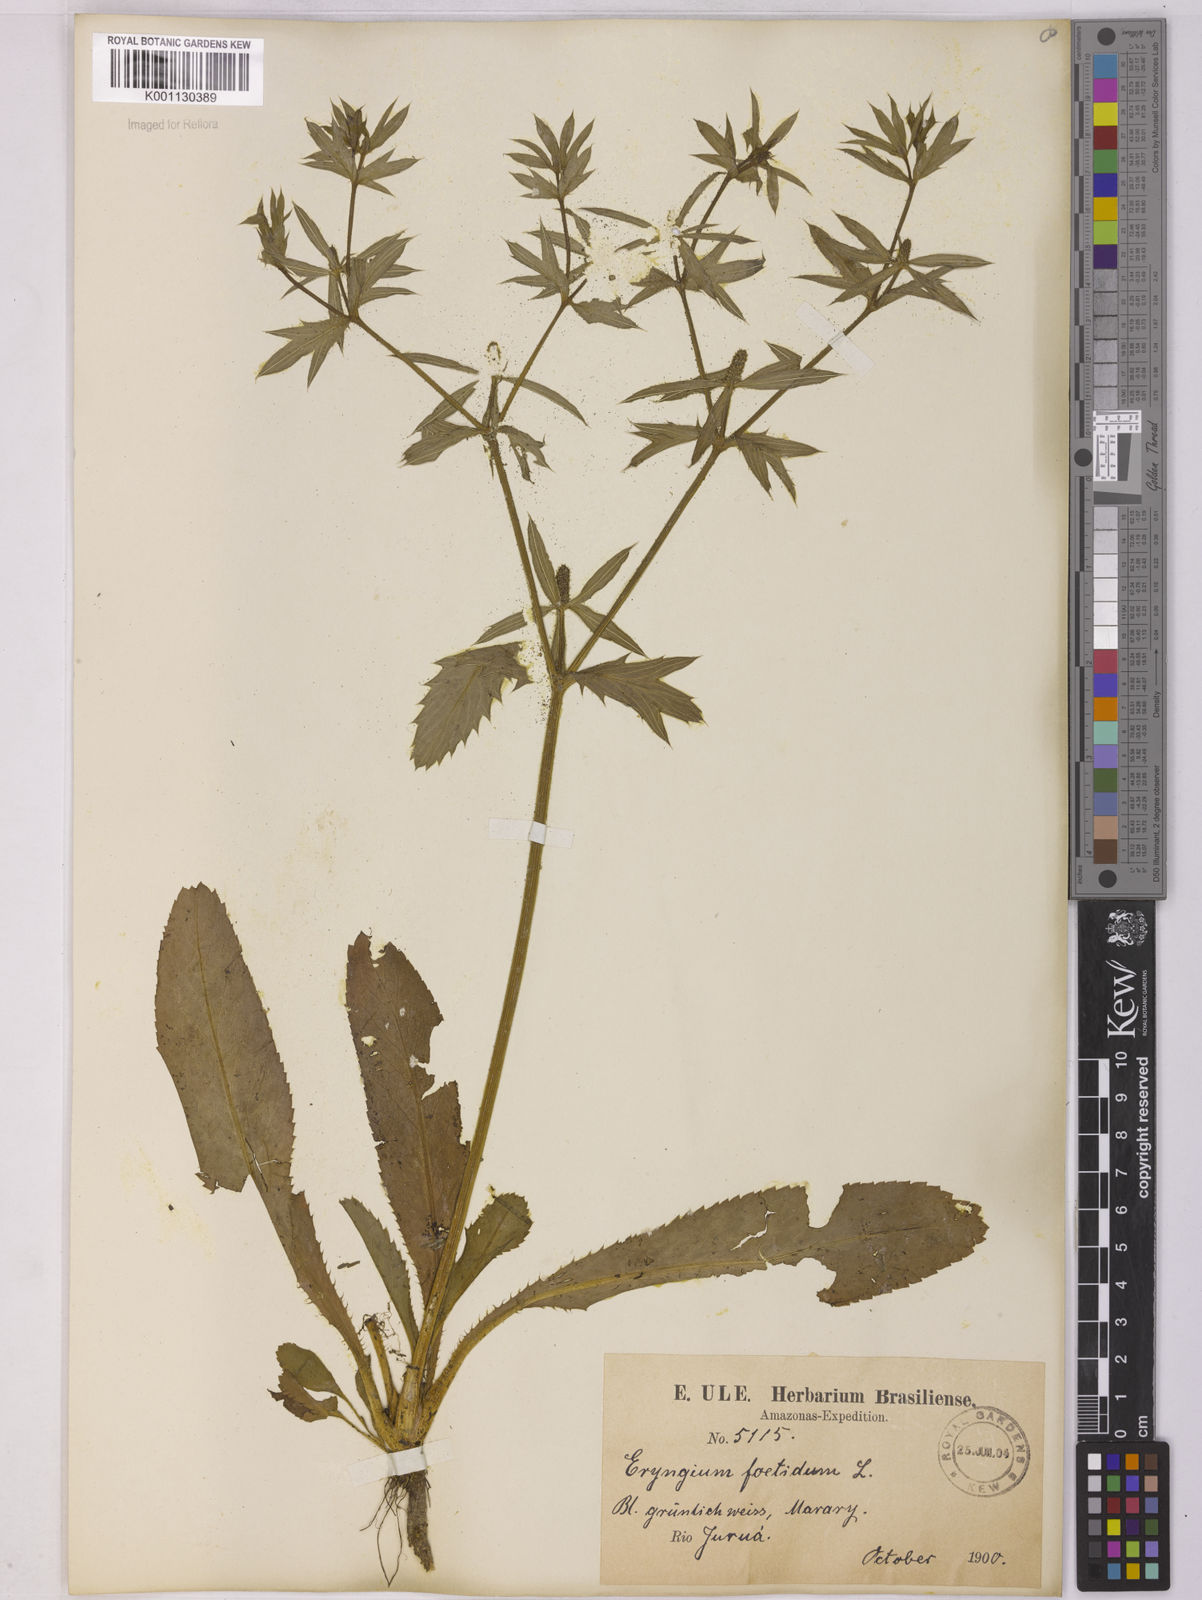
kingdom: Plantae
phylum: Tracheophyta
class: Magnoliopsida
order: Apiales
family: Apiaceae
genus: Eryngium
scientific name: Eryngium foetidum
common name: Fitweed
